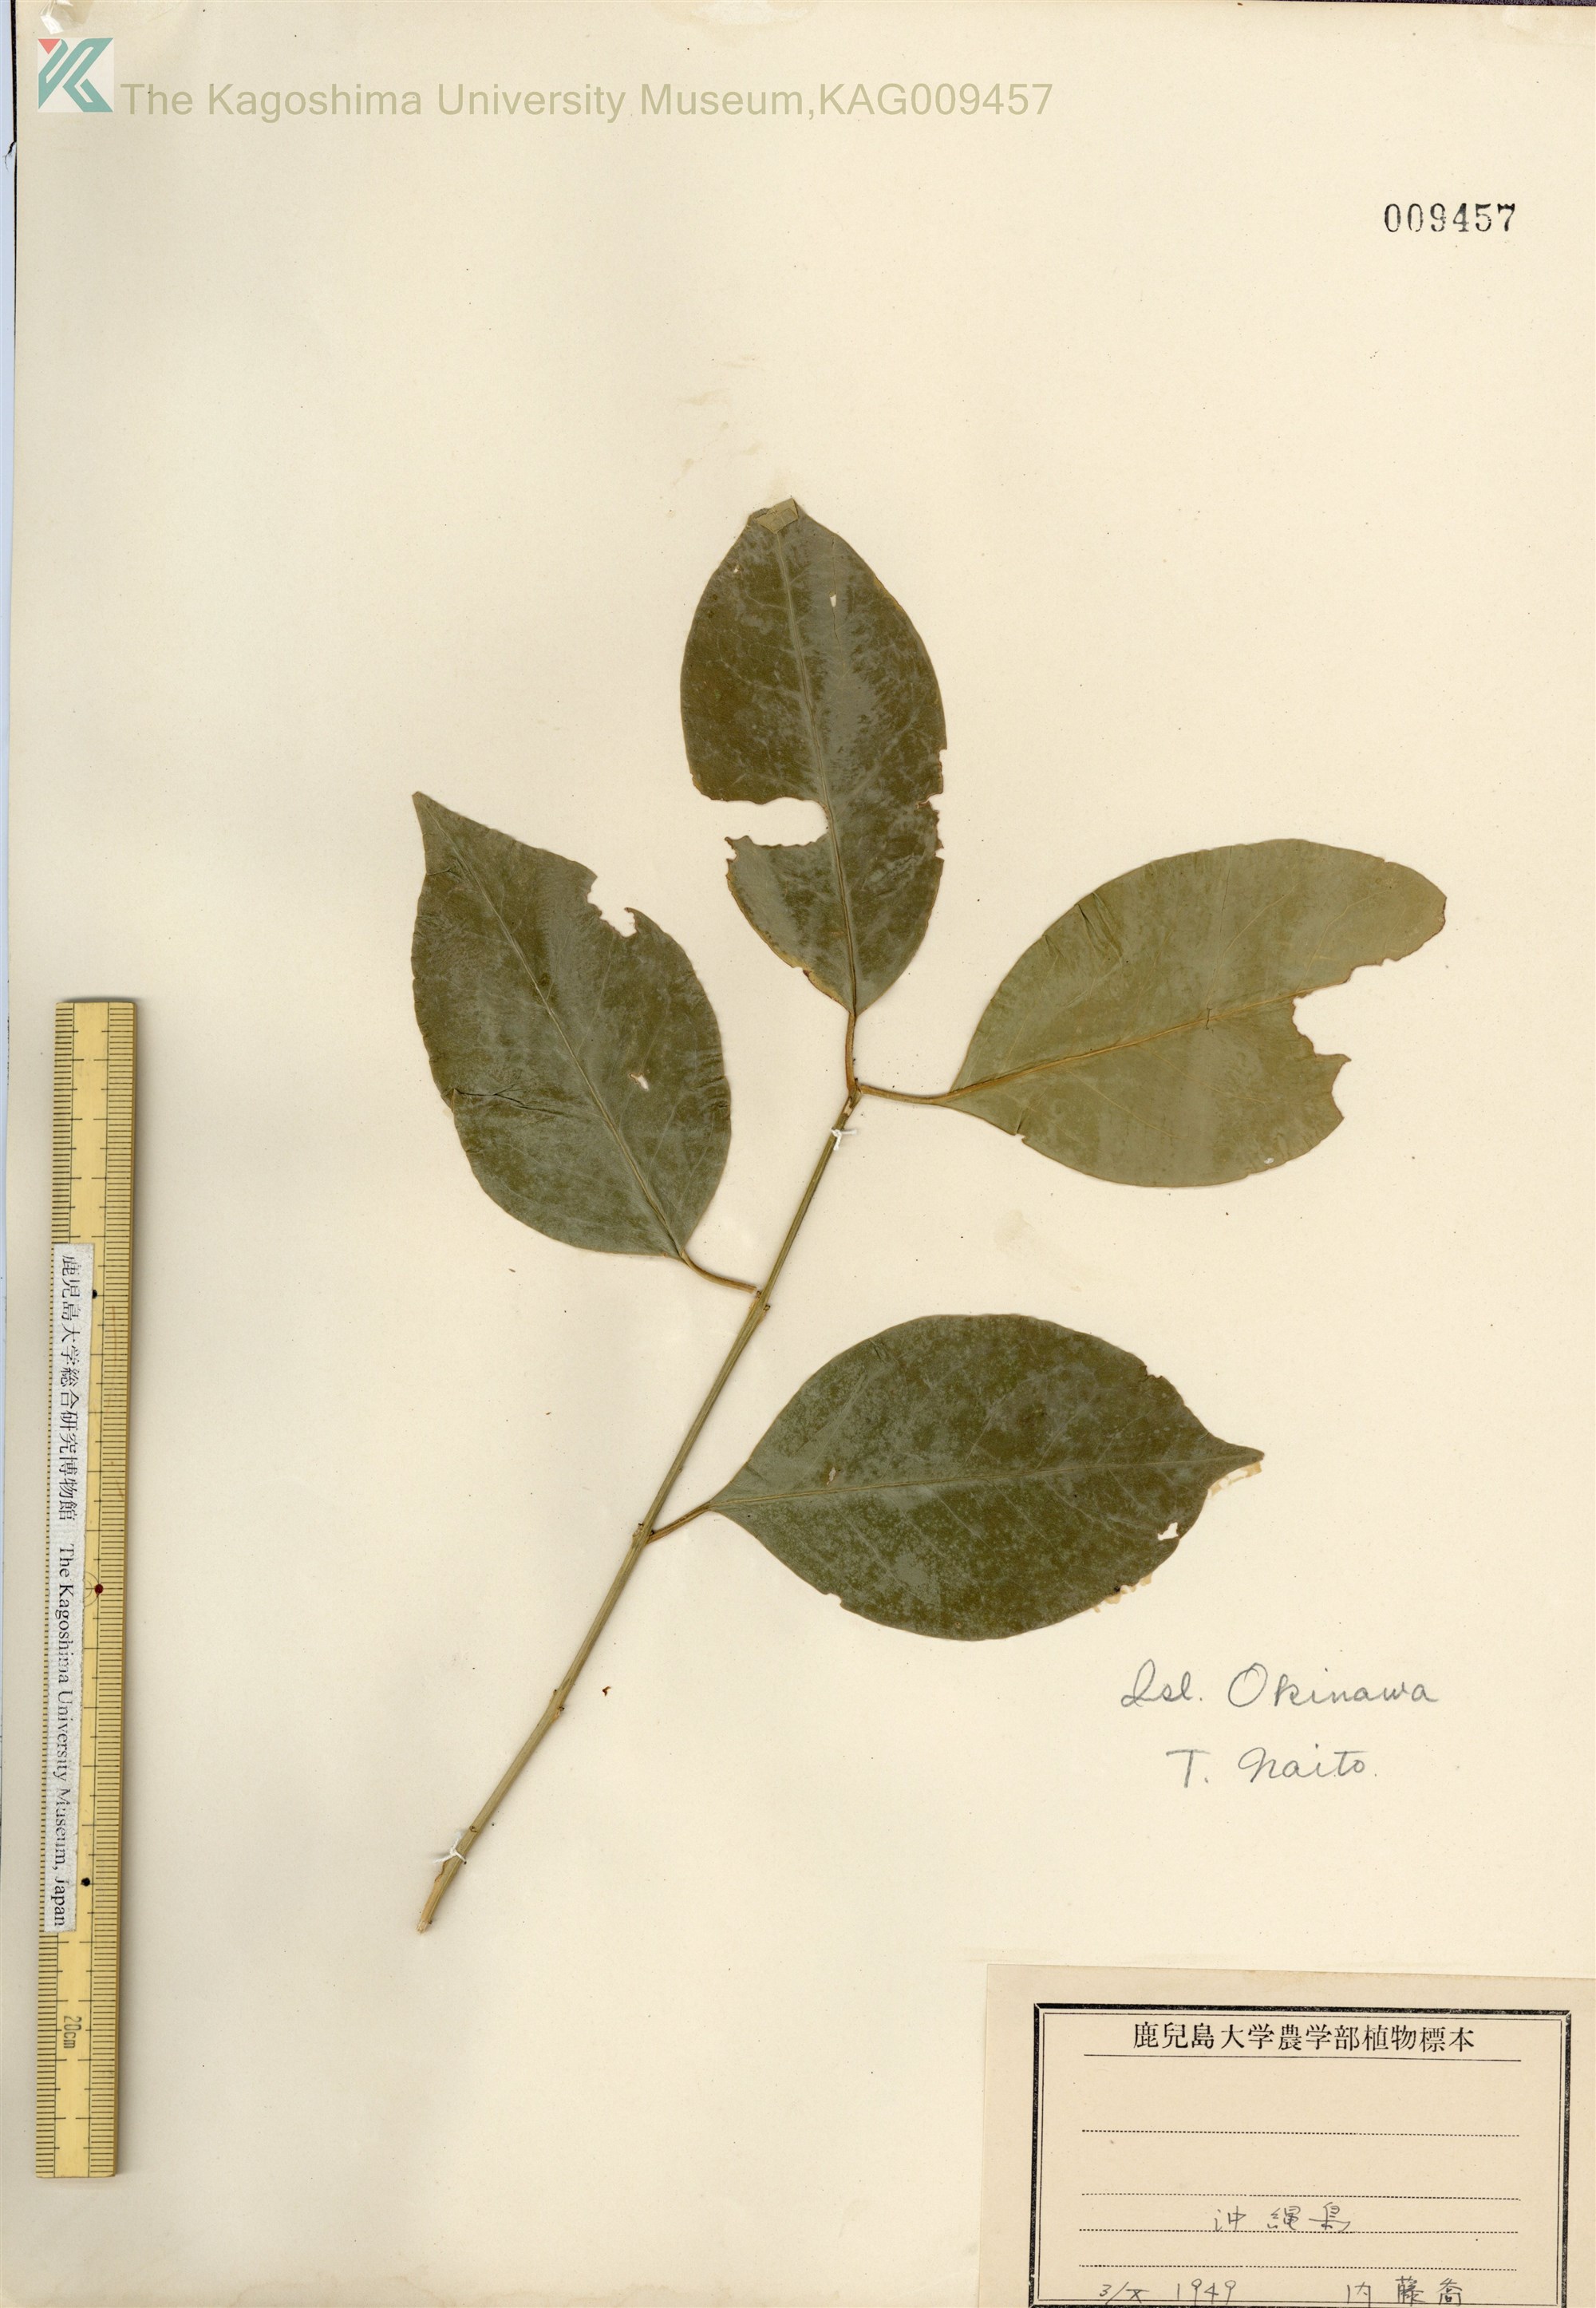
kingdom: Plantae
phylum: Tracheophyta
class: Magnoliopsida
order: Celastrales
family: Celastraceae
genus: Euonymus
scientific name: Euonymus chibae
